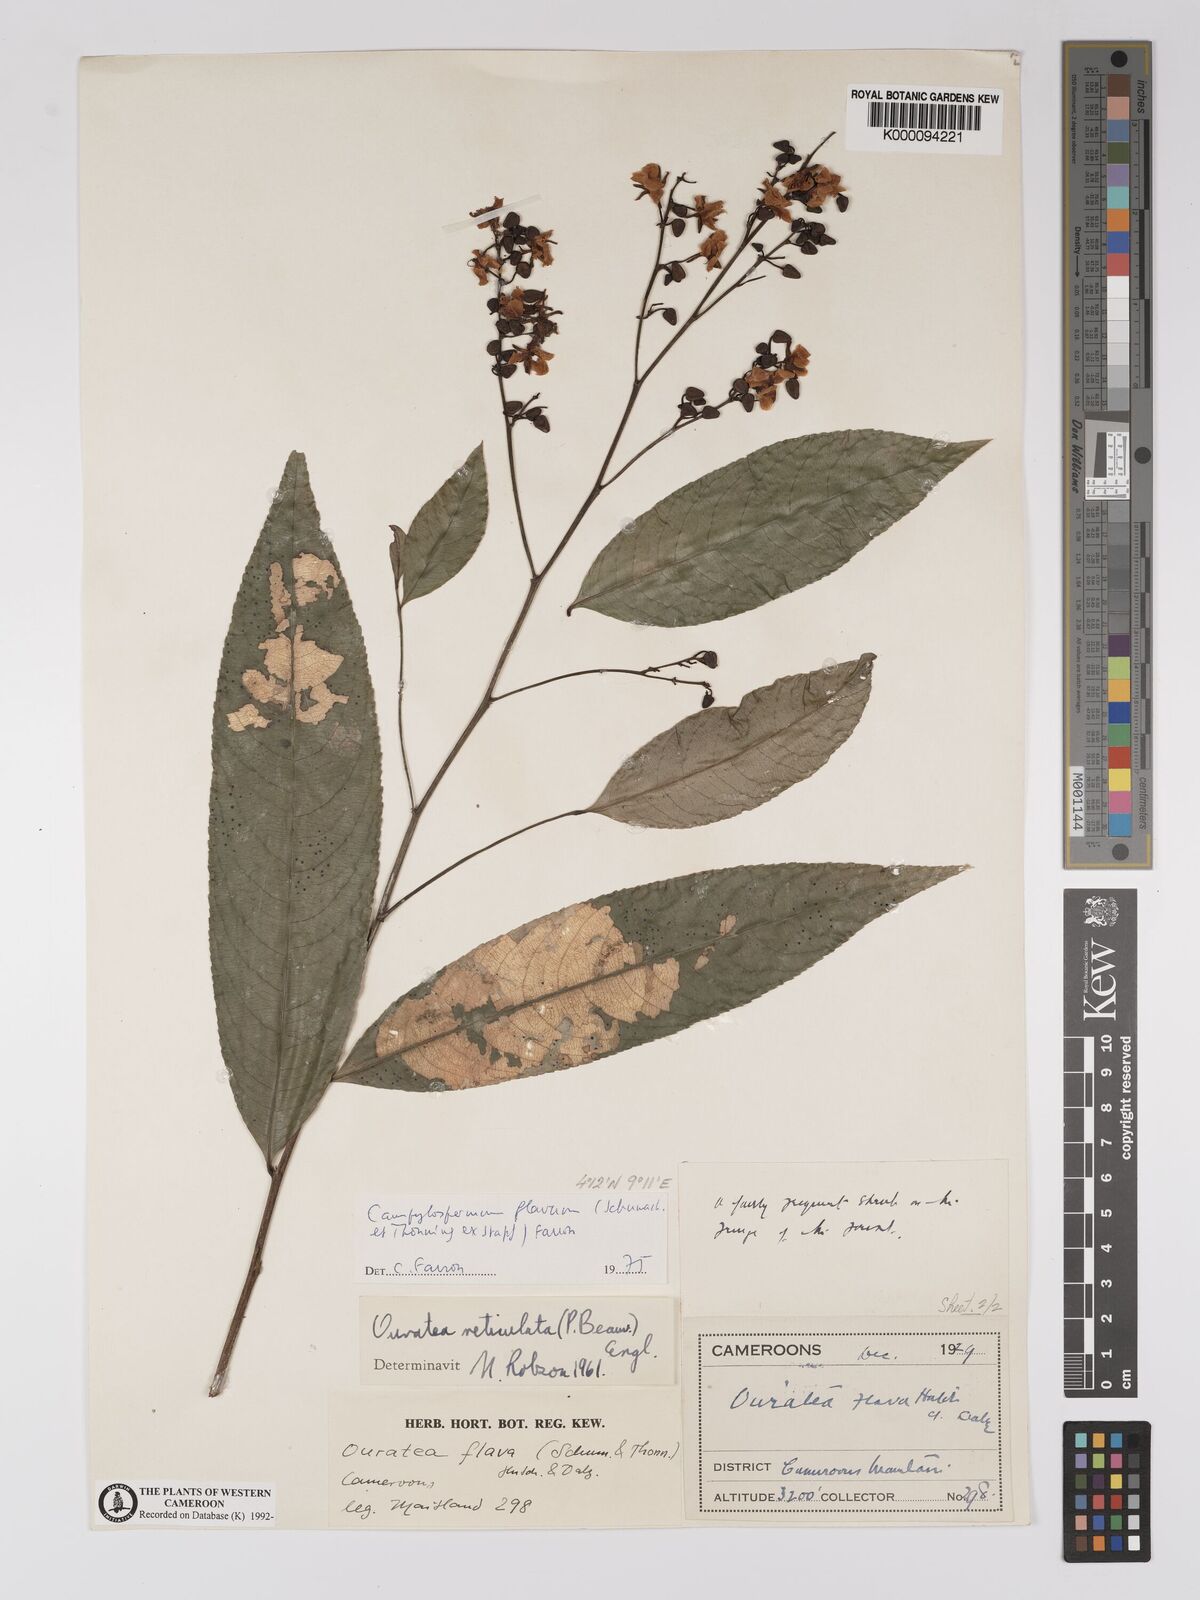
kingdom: Plantae
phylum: Tracheophyta
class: Magnoliopsida
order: Malpighiales
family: Ochnaceae
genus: Campylospermum
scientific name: Campylospermum reticulatum
